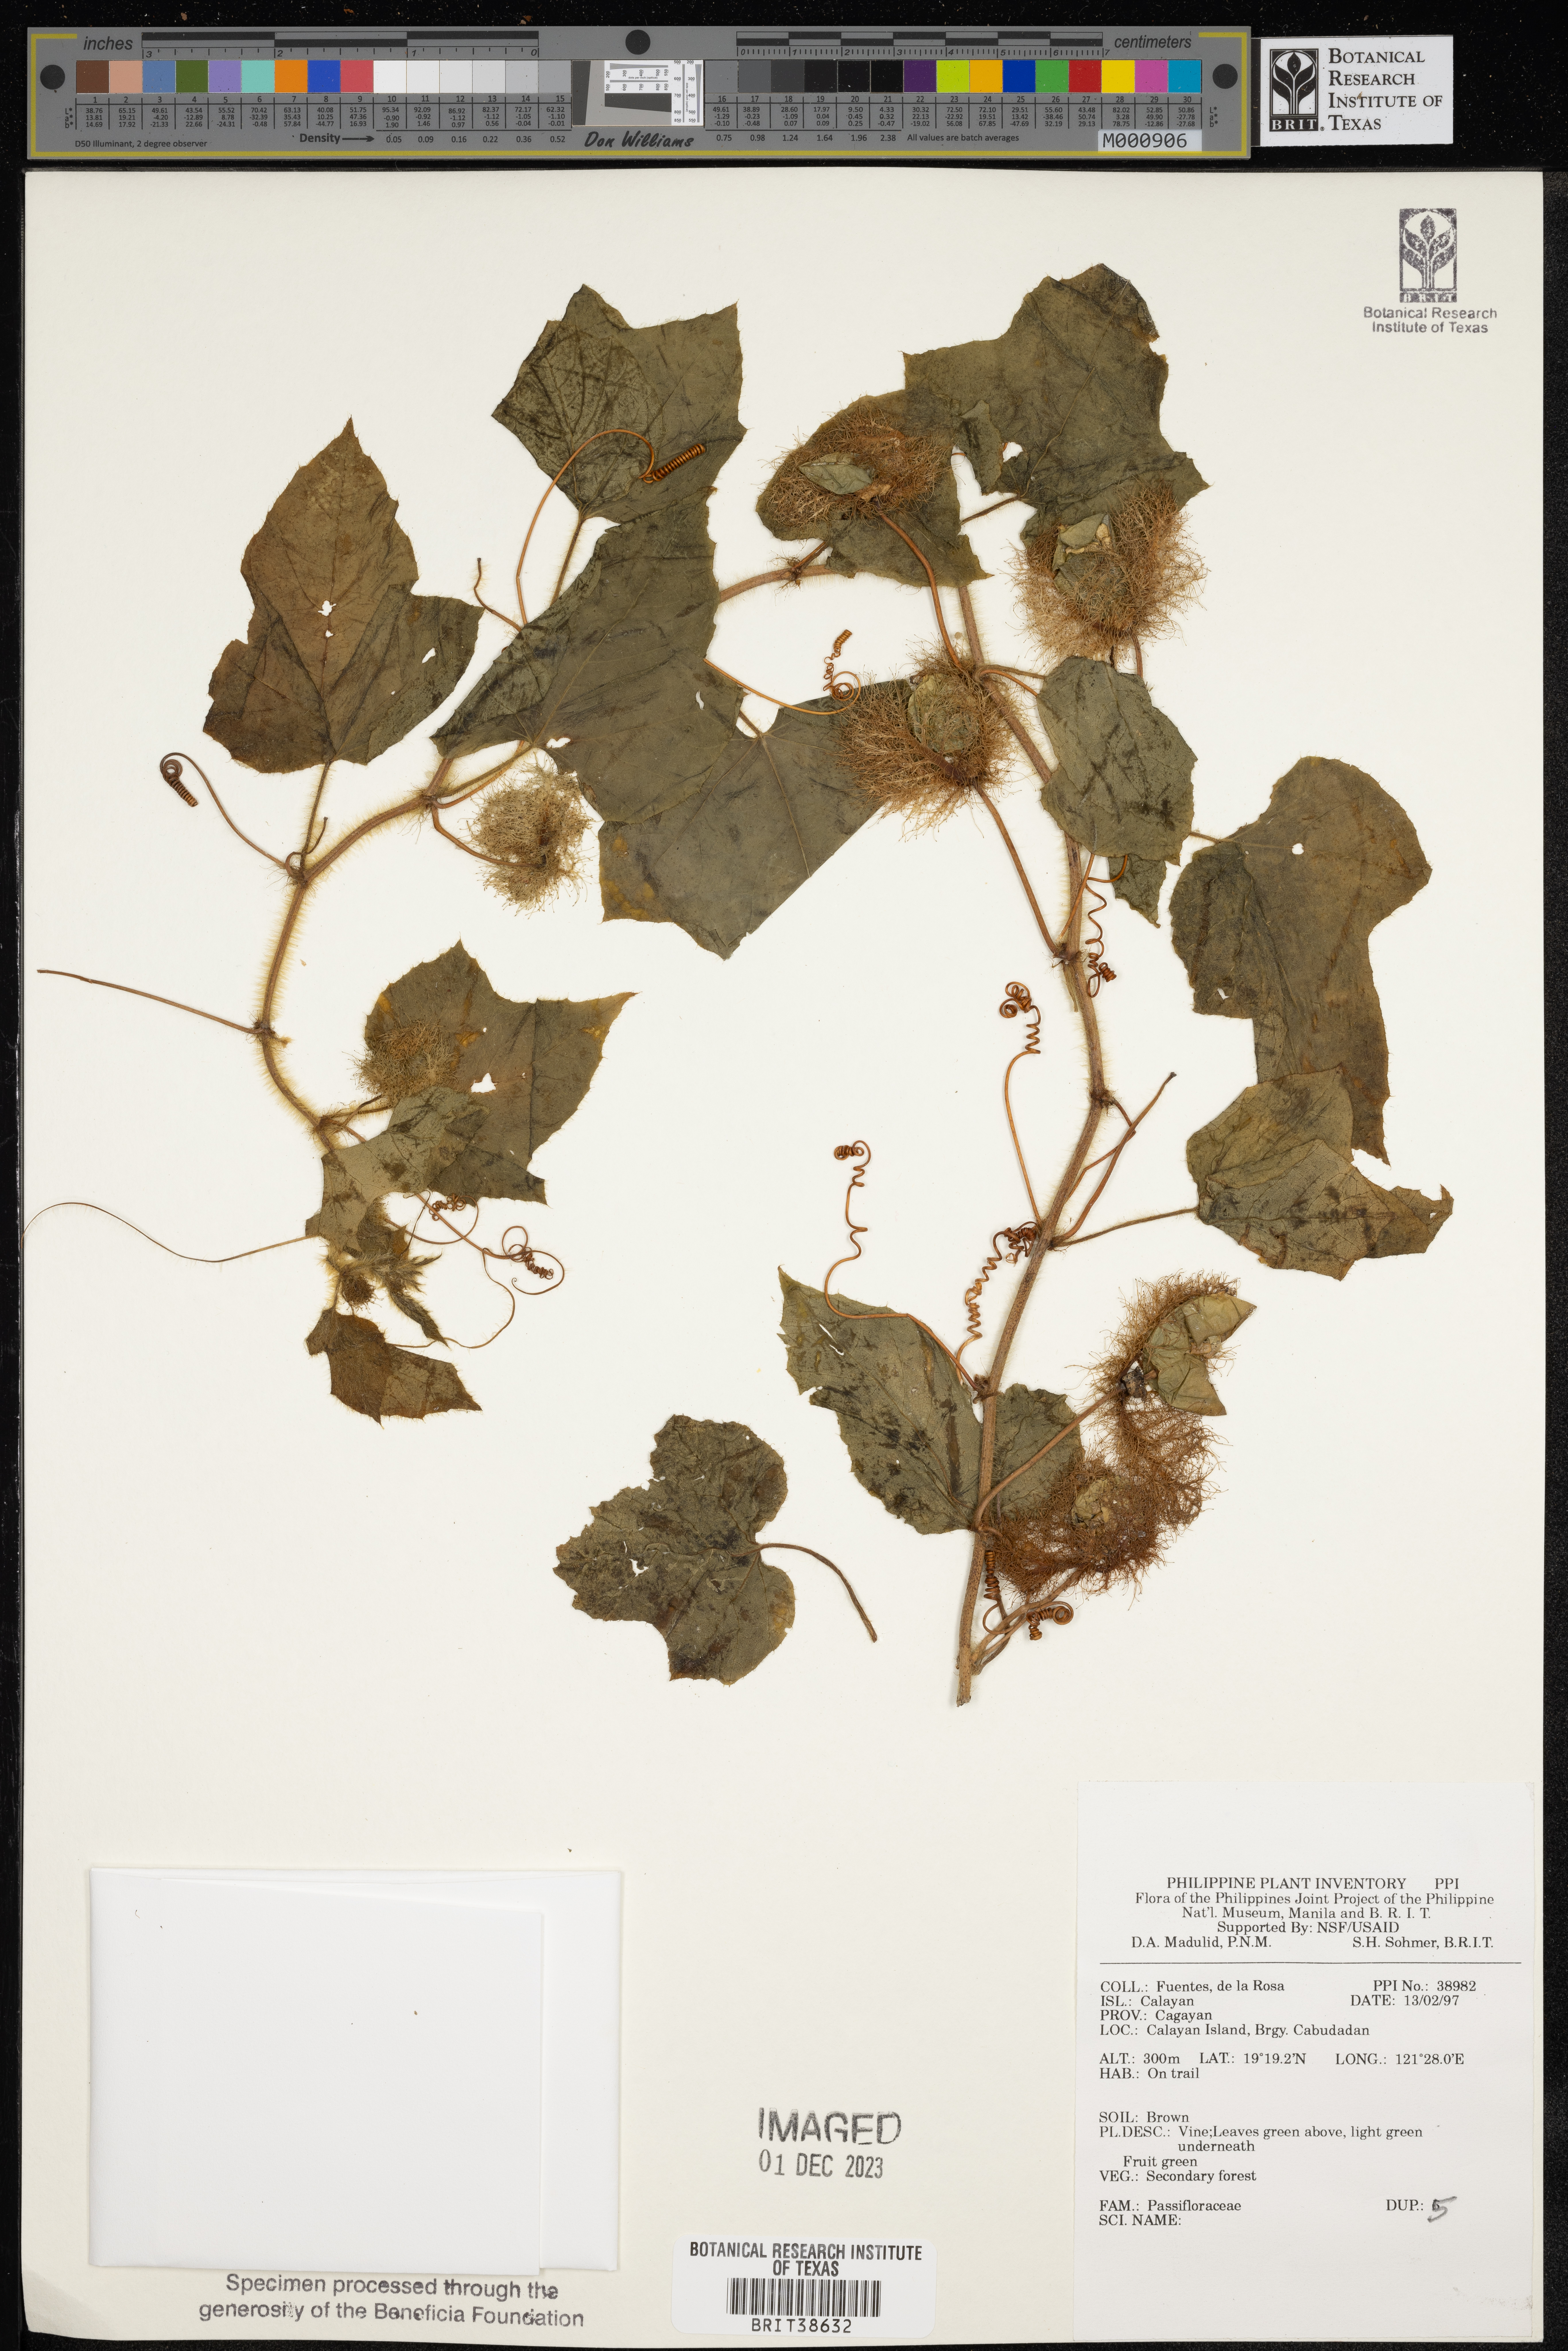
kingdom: Plantae
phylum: Tracheophyta
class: Magnoliopsida
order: Malpighiales
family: Passifloraceae
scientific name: Passifloraceae
